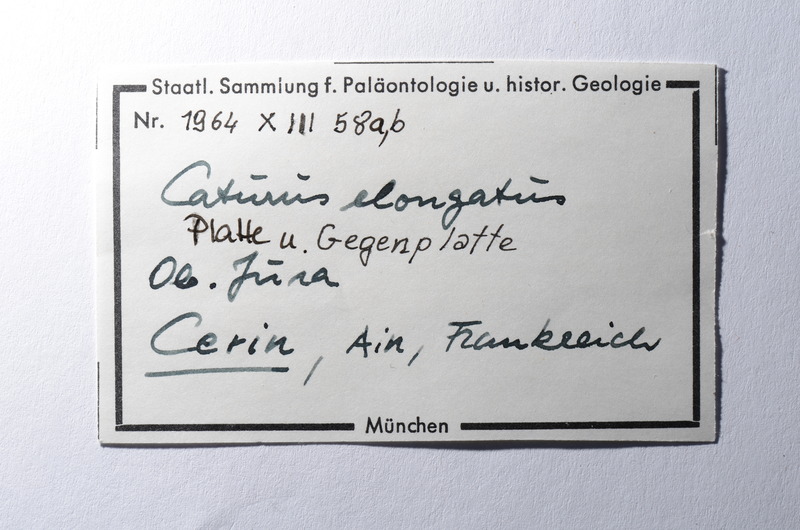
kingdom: Animalia
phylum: Chordata
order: Amiiformes
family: Caturidae
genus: Amblysemius
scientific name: Amblysemius bellicianus
